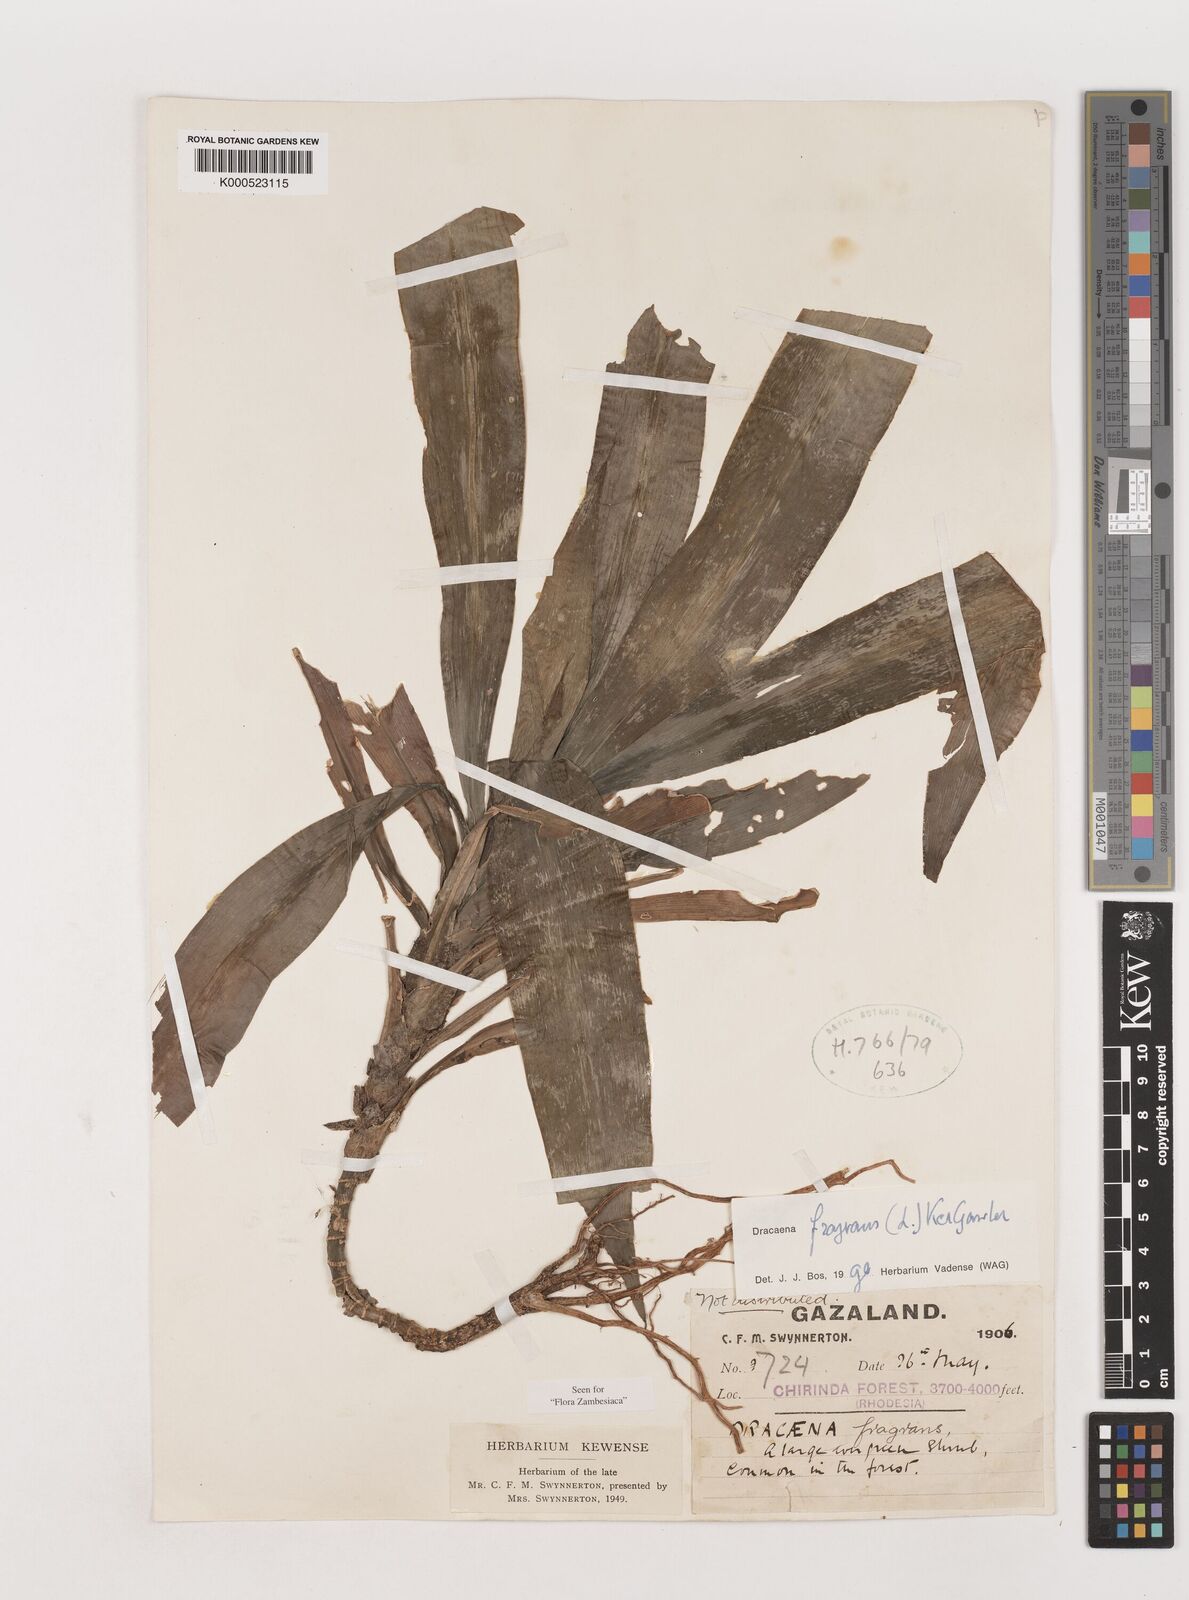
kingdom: Plantae
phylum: Tracheophyta
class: Liliopsida
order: Asparagales
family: Asparagaceae
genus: Dracaena
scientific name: Dracaena fragrans
